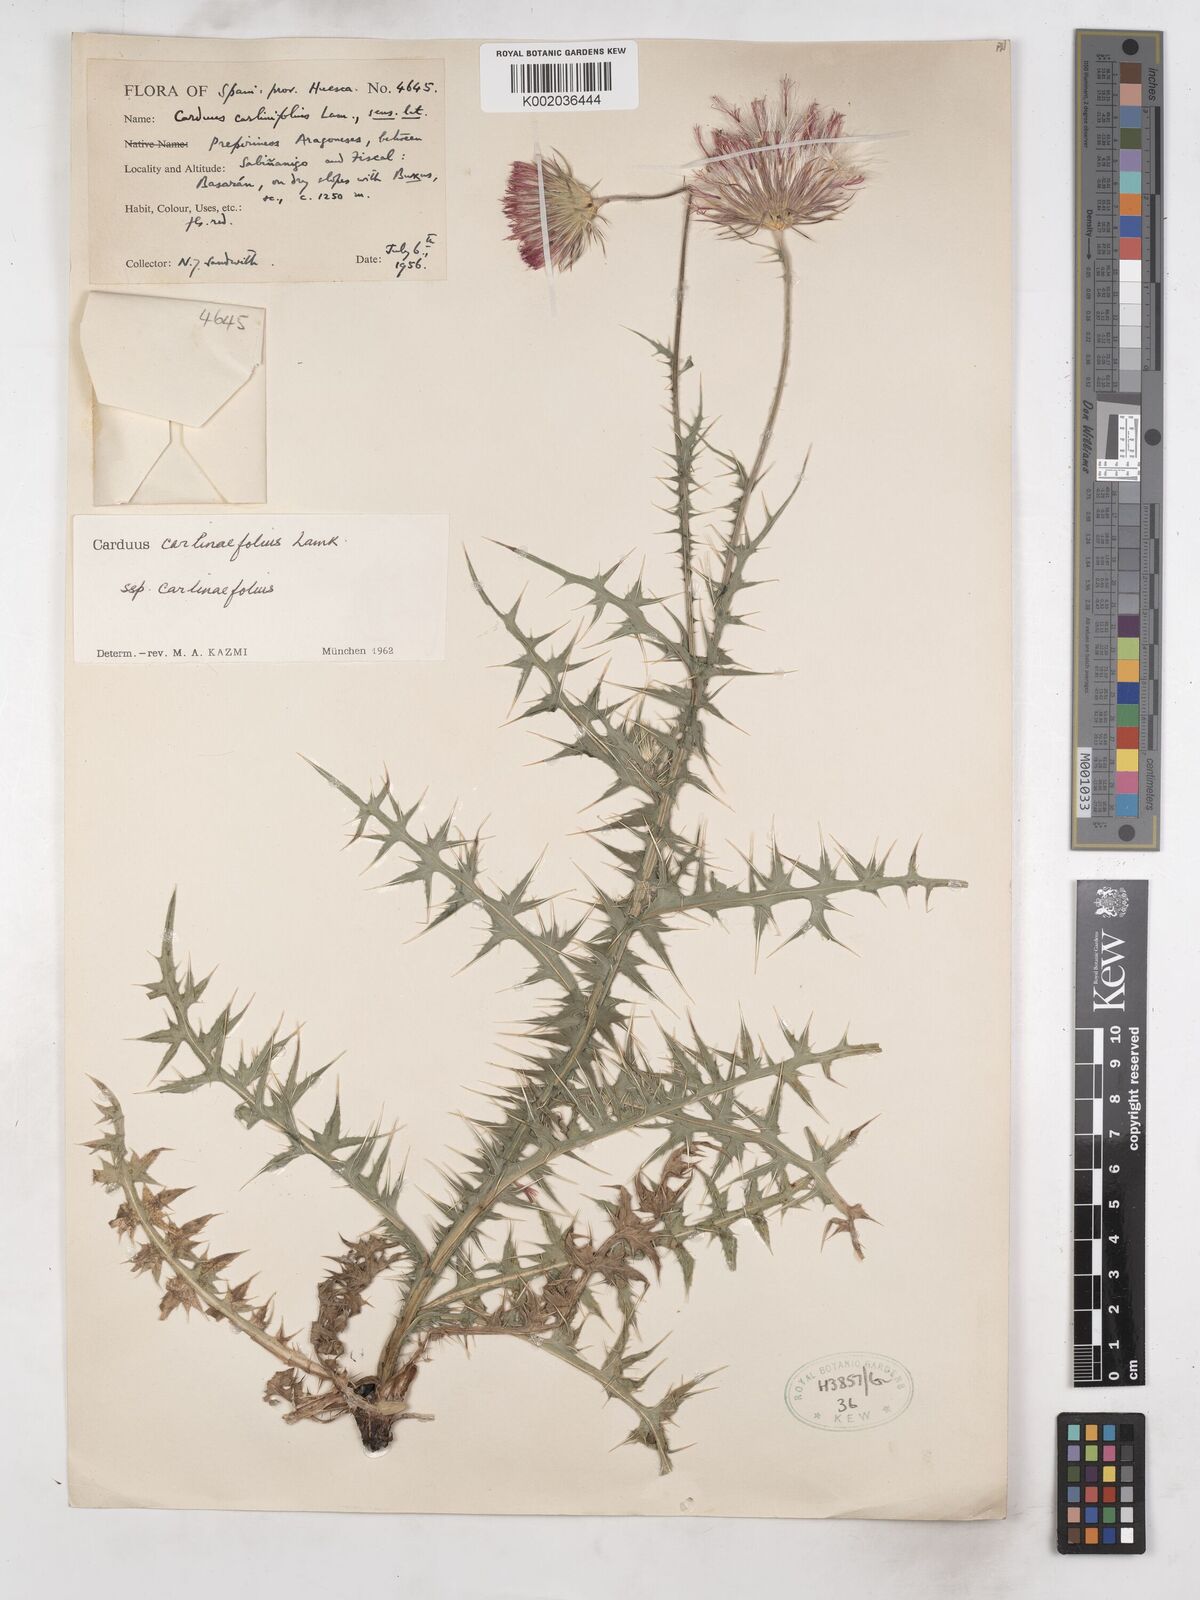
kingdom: Plantae
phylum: Tracheophyta
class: Magnoliopsida
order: Asterales
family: Asteraceae
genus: Carduus
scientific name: Carduus carlinifolius
